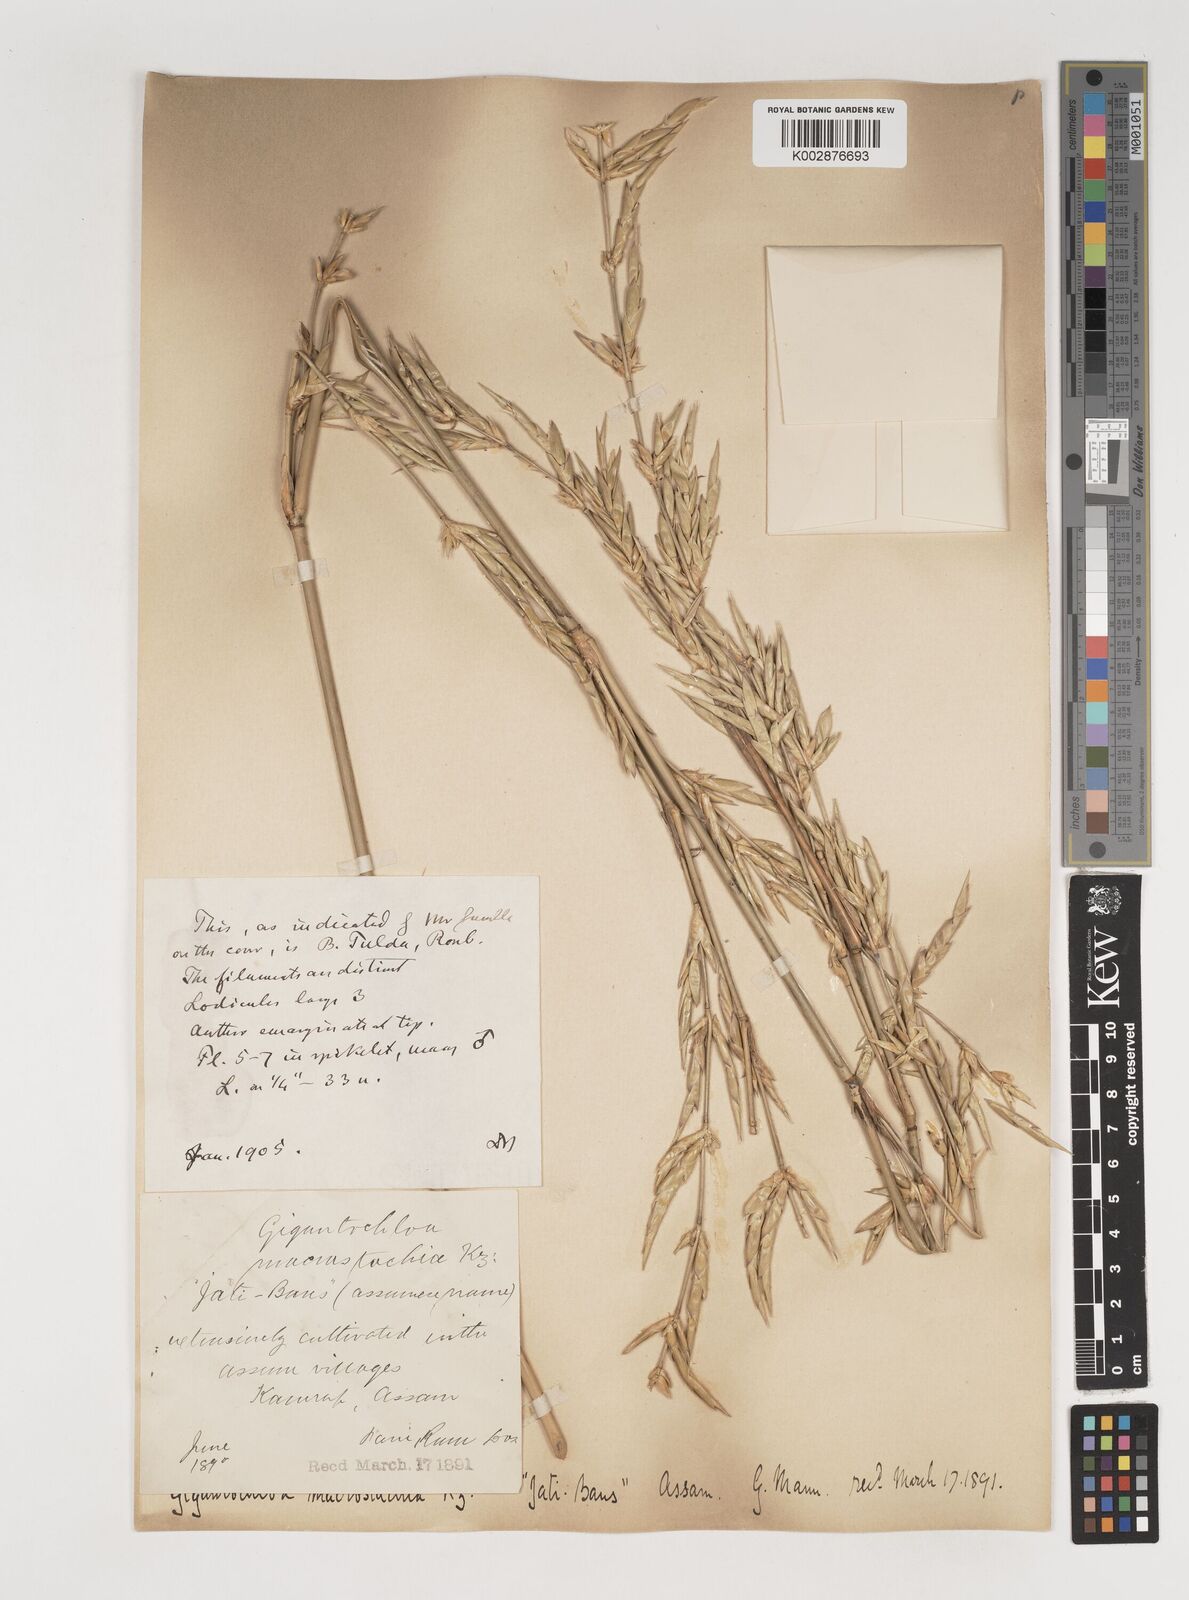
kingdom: Plantae
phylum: Tracheophyta
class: Liliopsida
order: Poales
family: Poaceae
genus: Bambusa
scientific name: Bambusa teres
